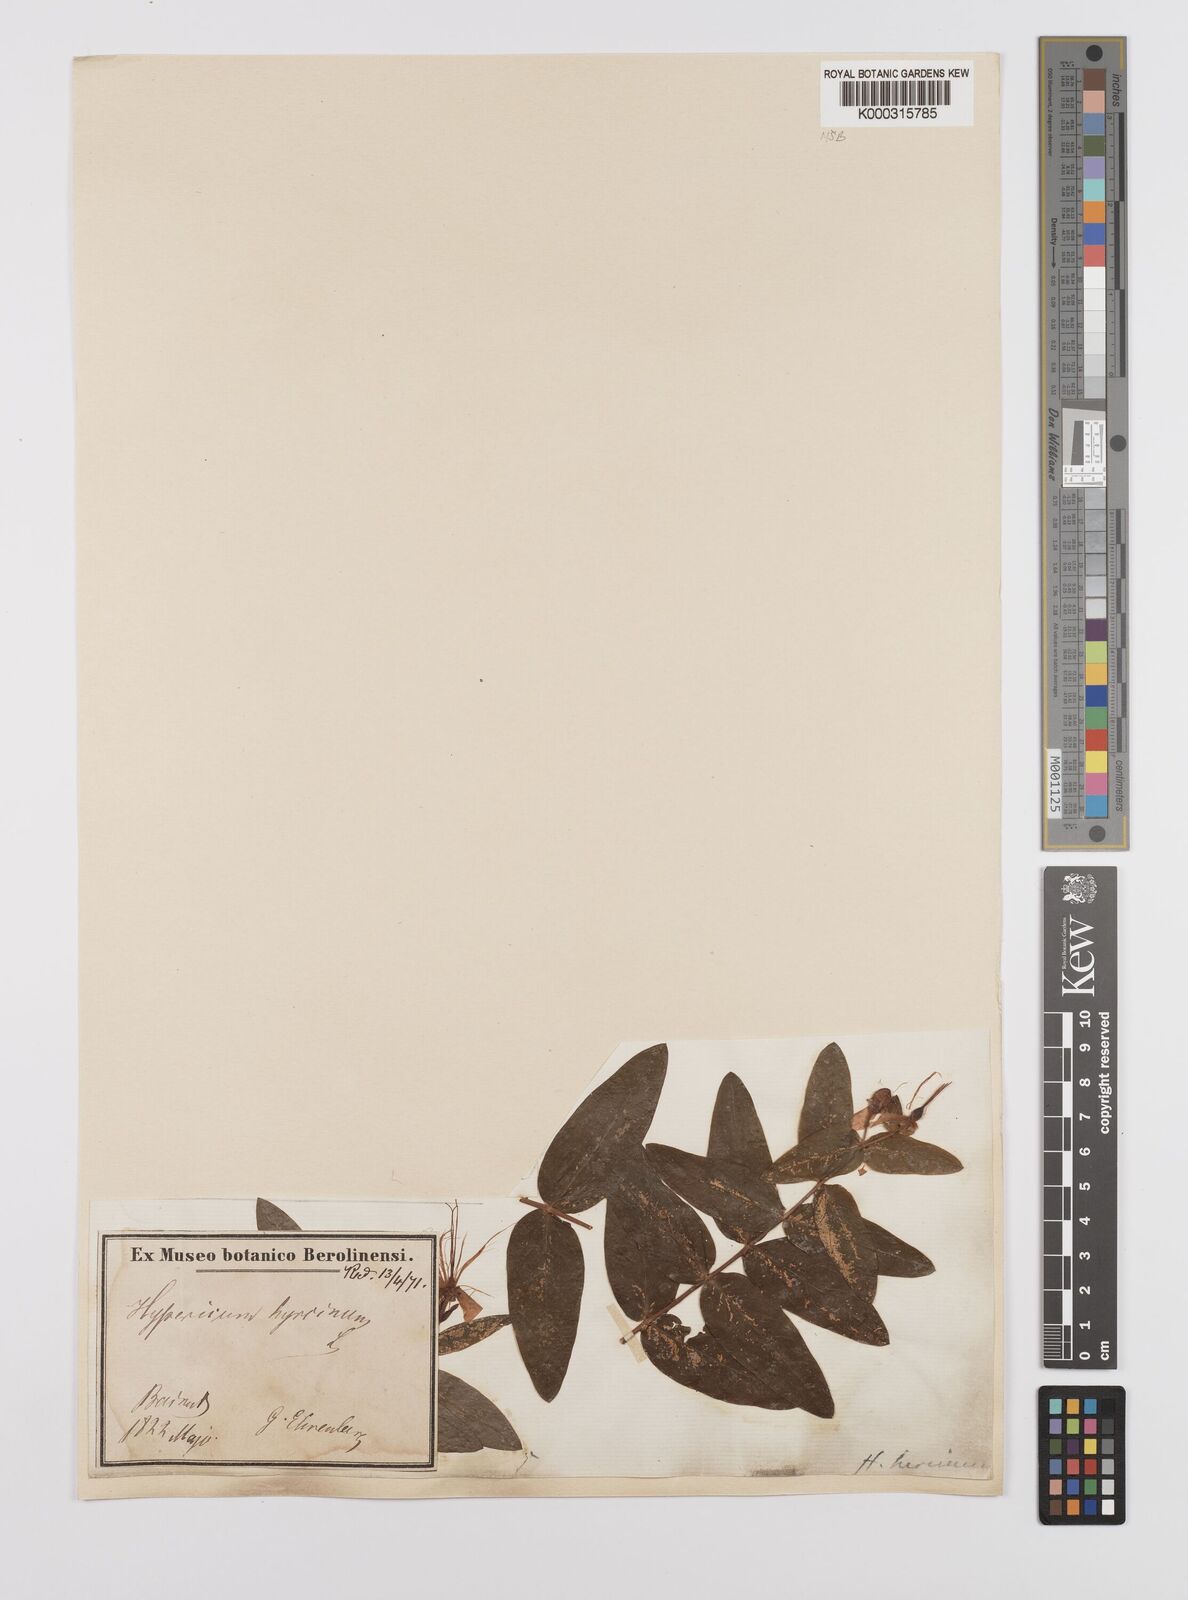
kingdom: Plantae
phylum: Tracheophyta
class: Magnoliopsida
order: Malpighiales
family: Hypericaceae
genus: Hypericum
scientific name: Hypericum hircinum
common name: Stinking tutsan
